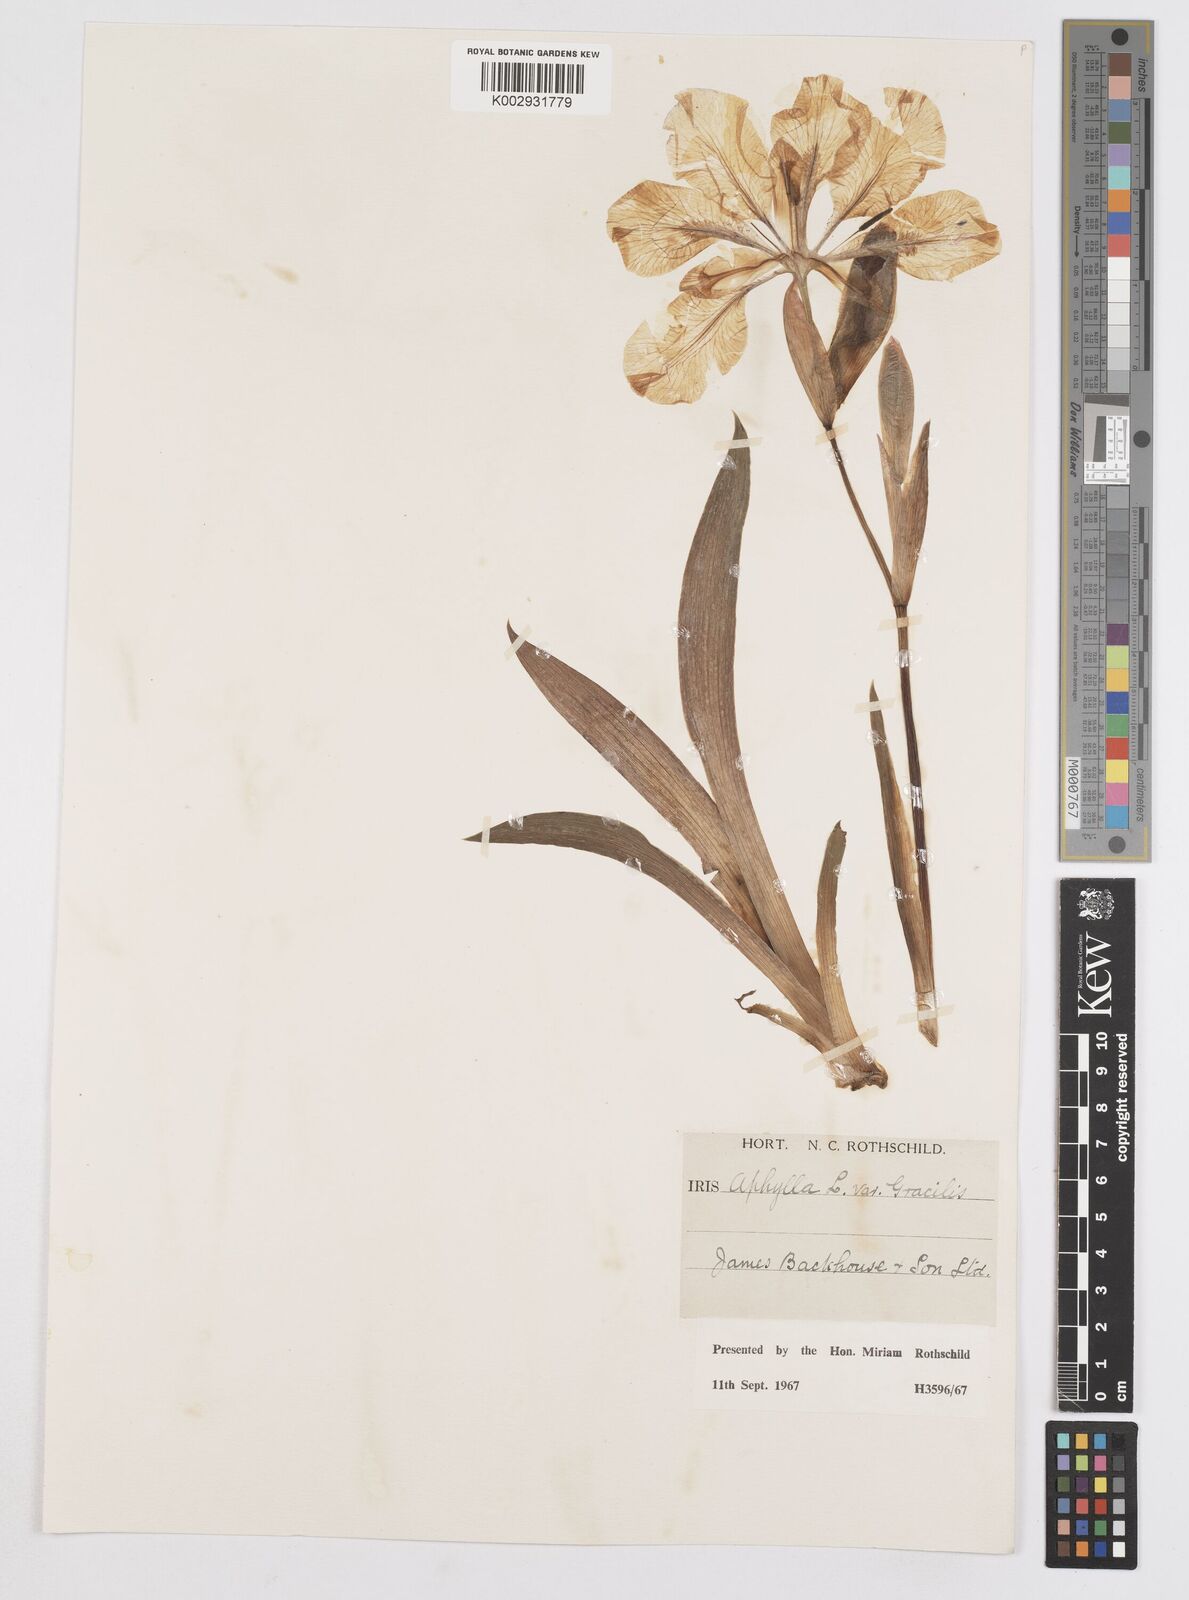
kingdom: Plantae
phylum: Tracheophyta
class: Liliopsida
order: Asparagales
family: Iridaceae
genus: Iris
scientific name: Iris aphylla
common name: Stool iris
